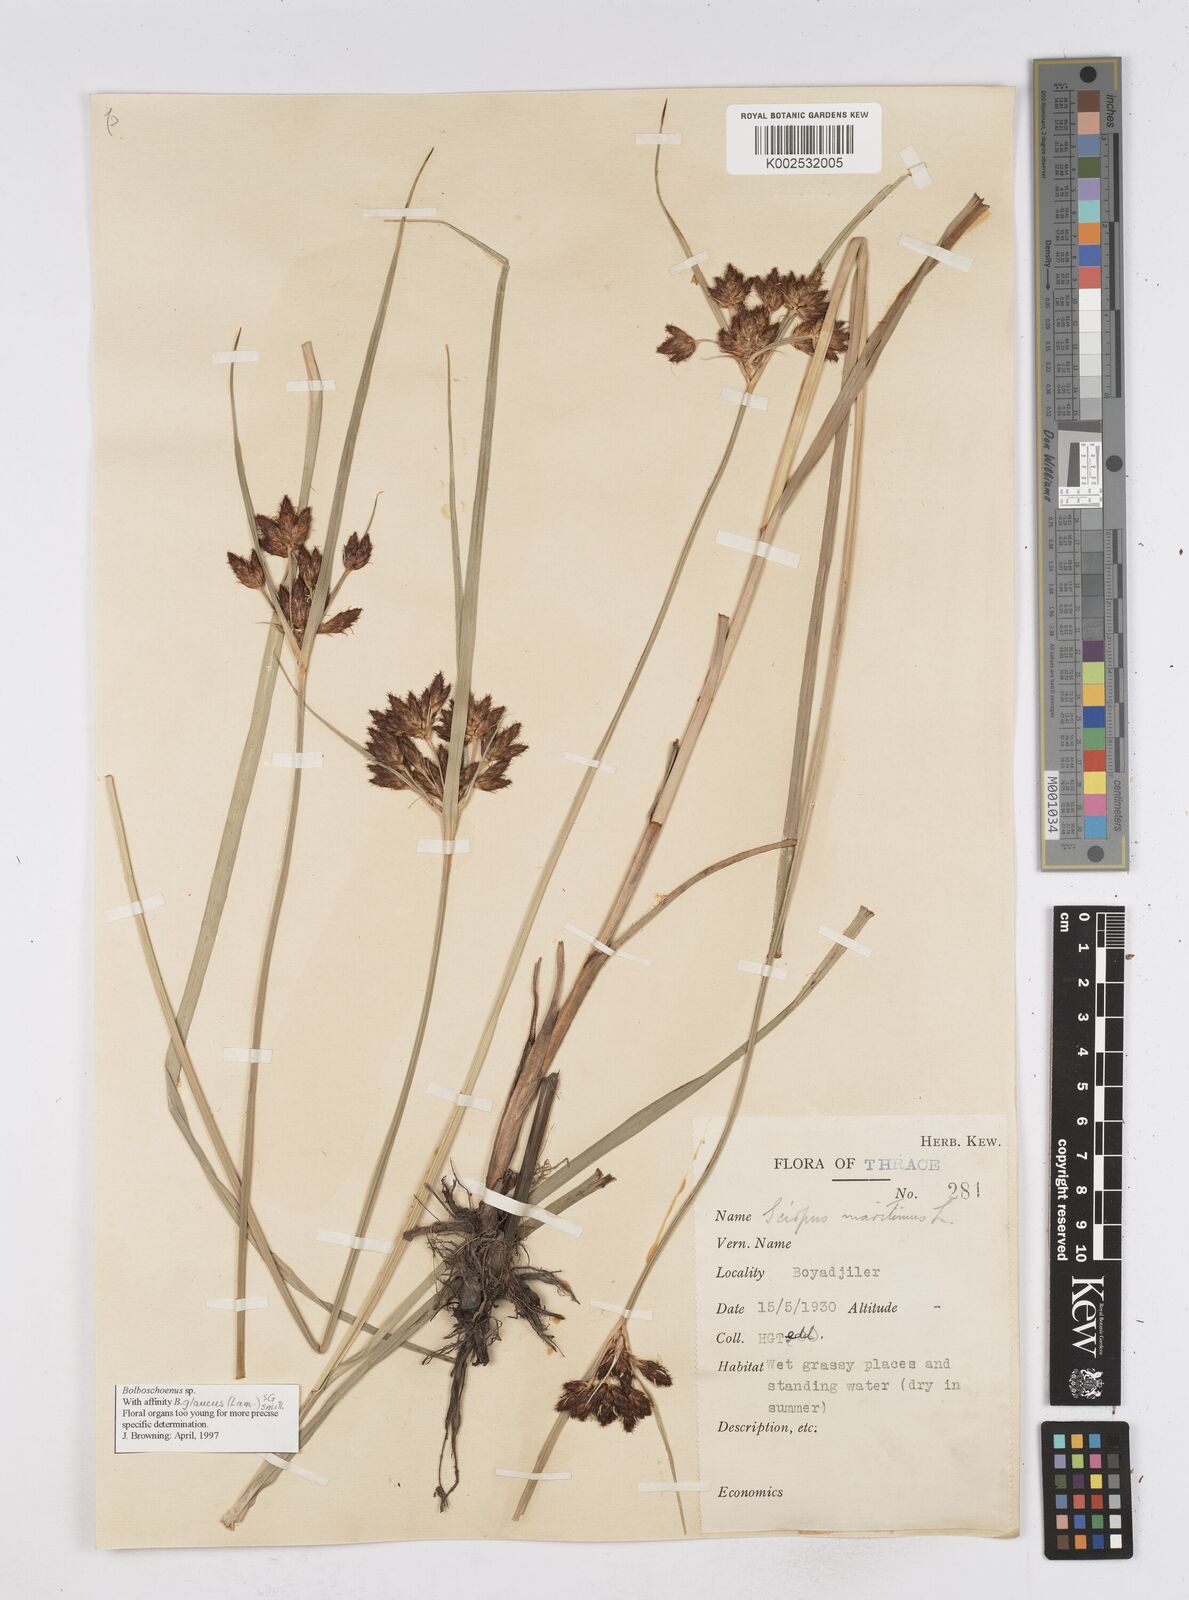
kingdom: Plantae
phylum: Tracheophyta
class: Liliopsida
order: Poales
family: Cyperaceae
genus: Bolboschoenus
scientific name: Bolboschoenus maritimus
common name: Sea club-rush
